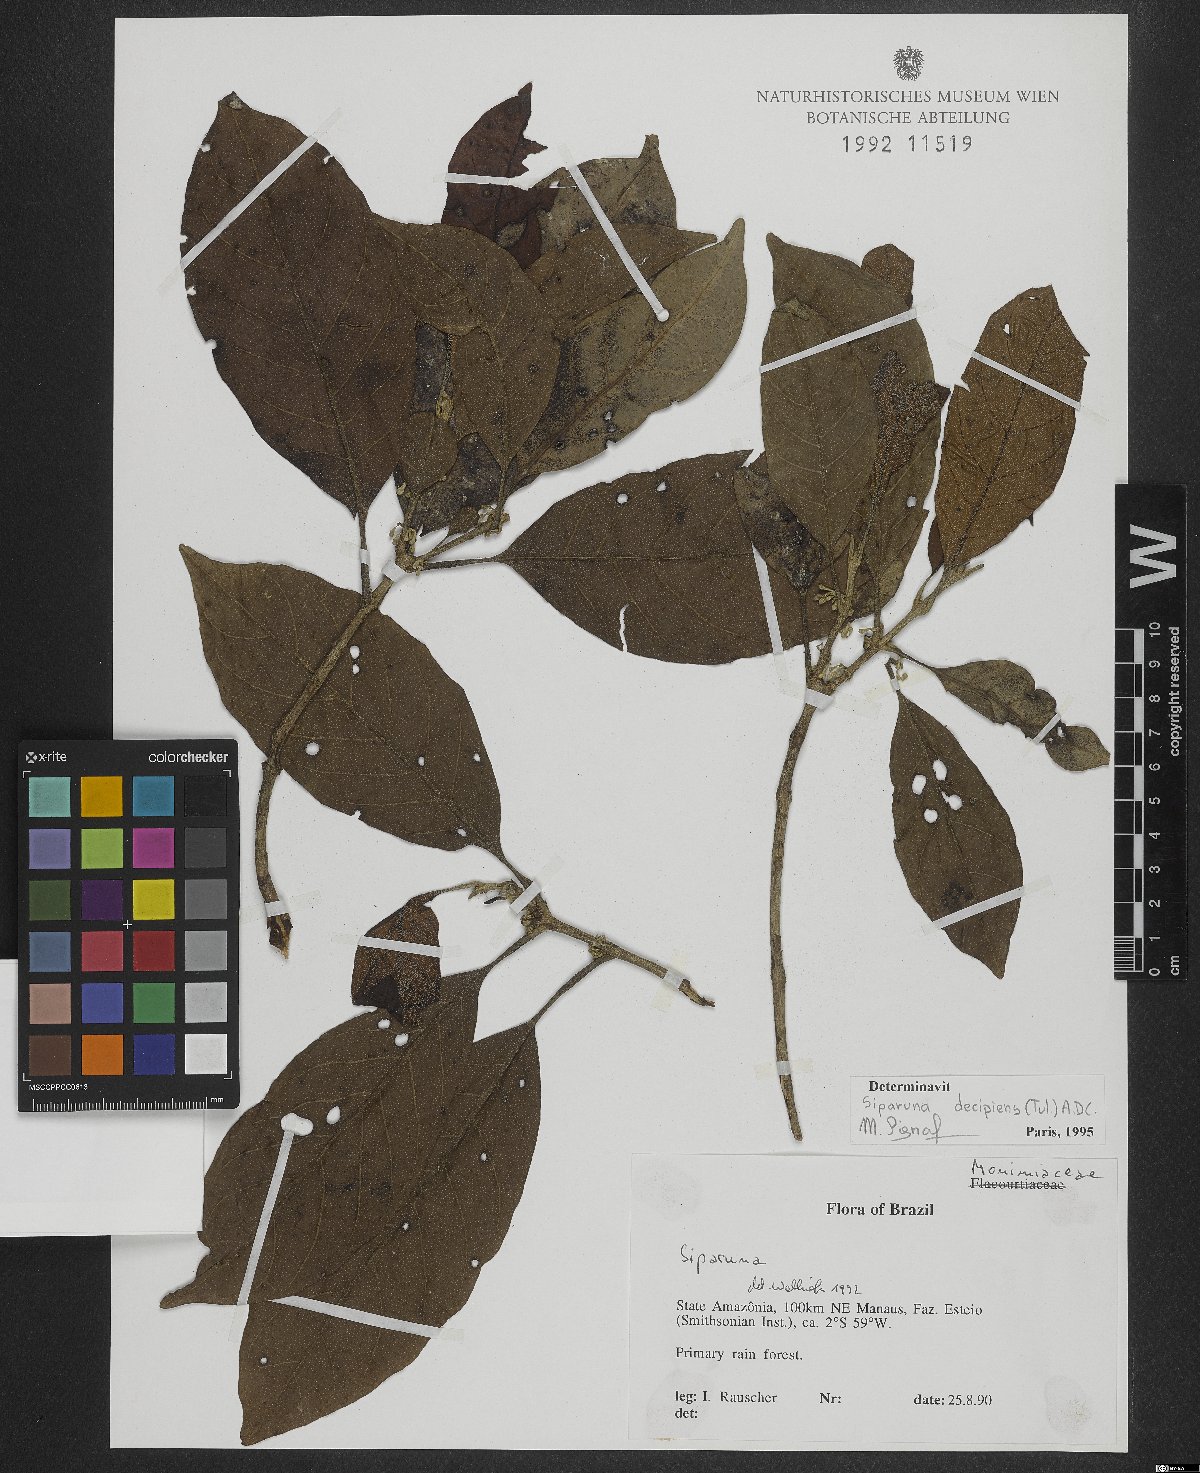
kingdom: Plantae
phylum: Tracheophyta
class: Magnoliopsida
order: Laurales
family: Siparunaceae
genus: Siparuna
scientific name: Siparuna decipiens
